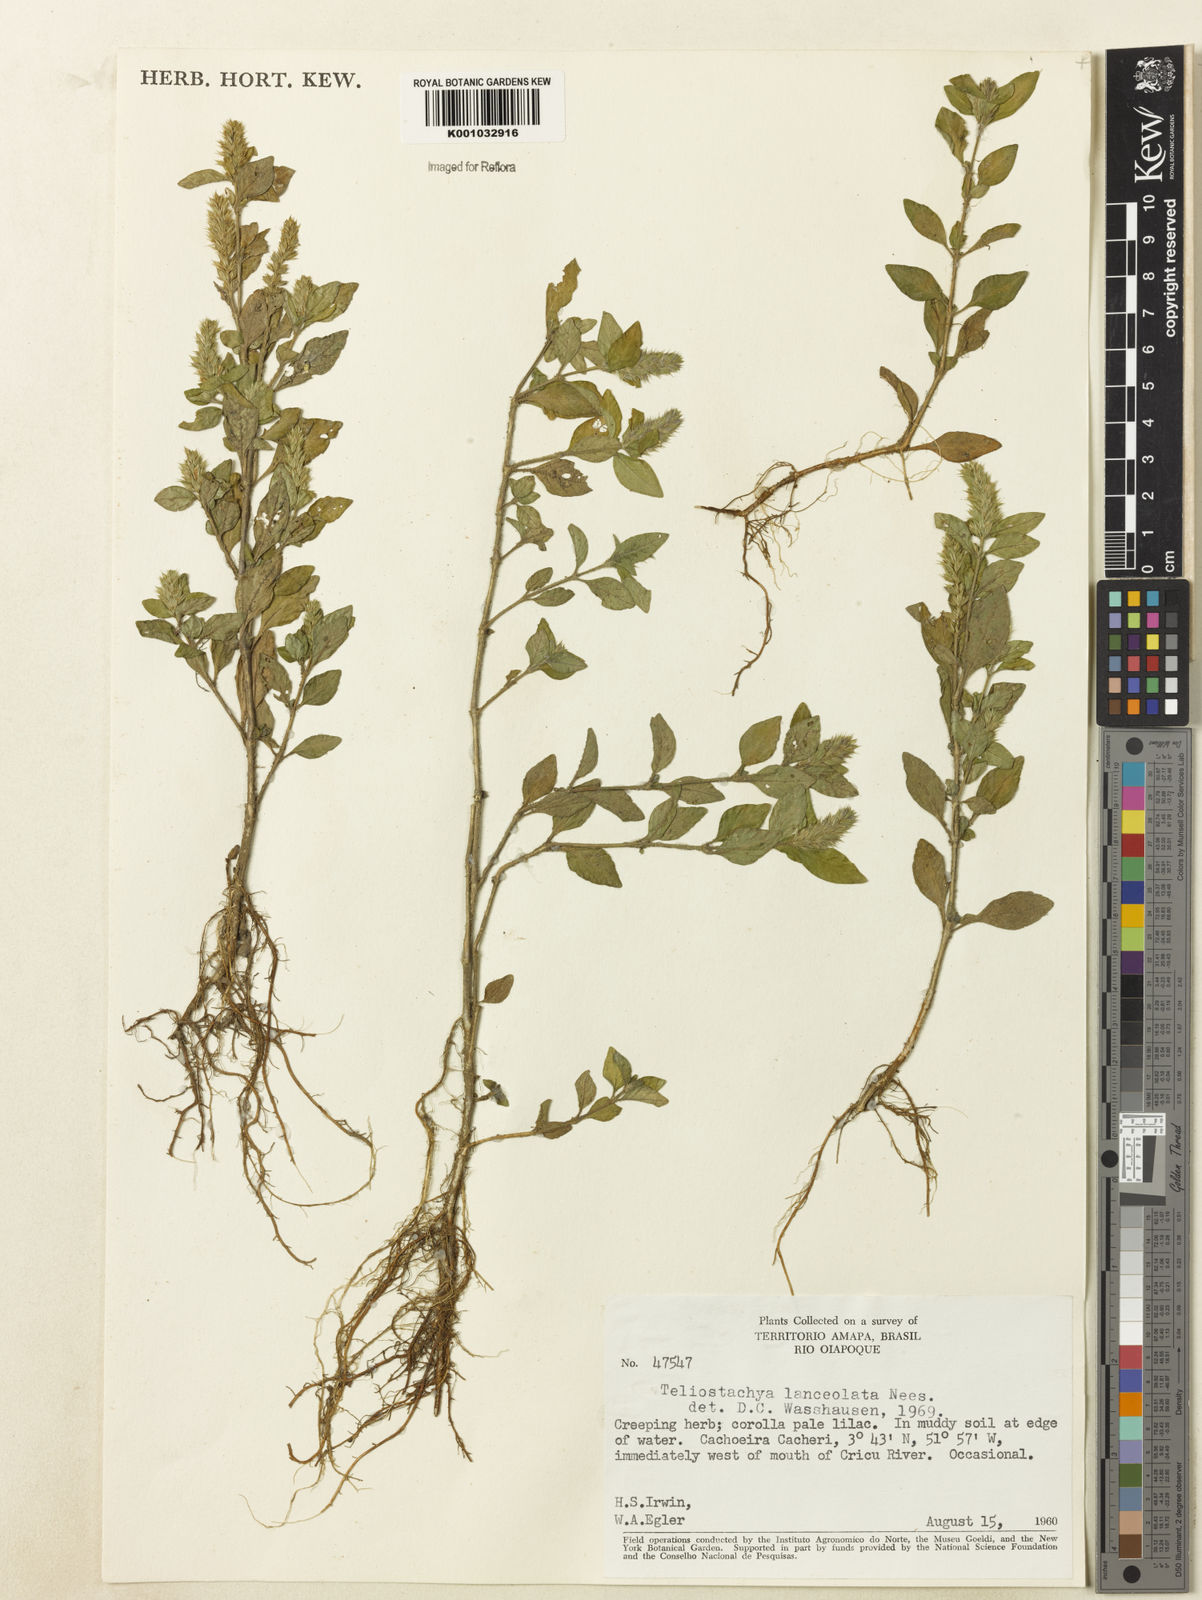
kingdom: Plantae
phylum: Tracheophyta
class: Magnoliopsida
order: Lamiales
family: Acanthaceae
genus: Lepidagathis
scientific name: Lepidagathis alopecuroidea
